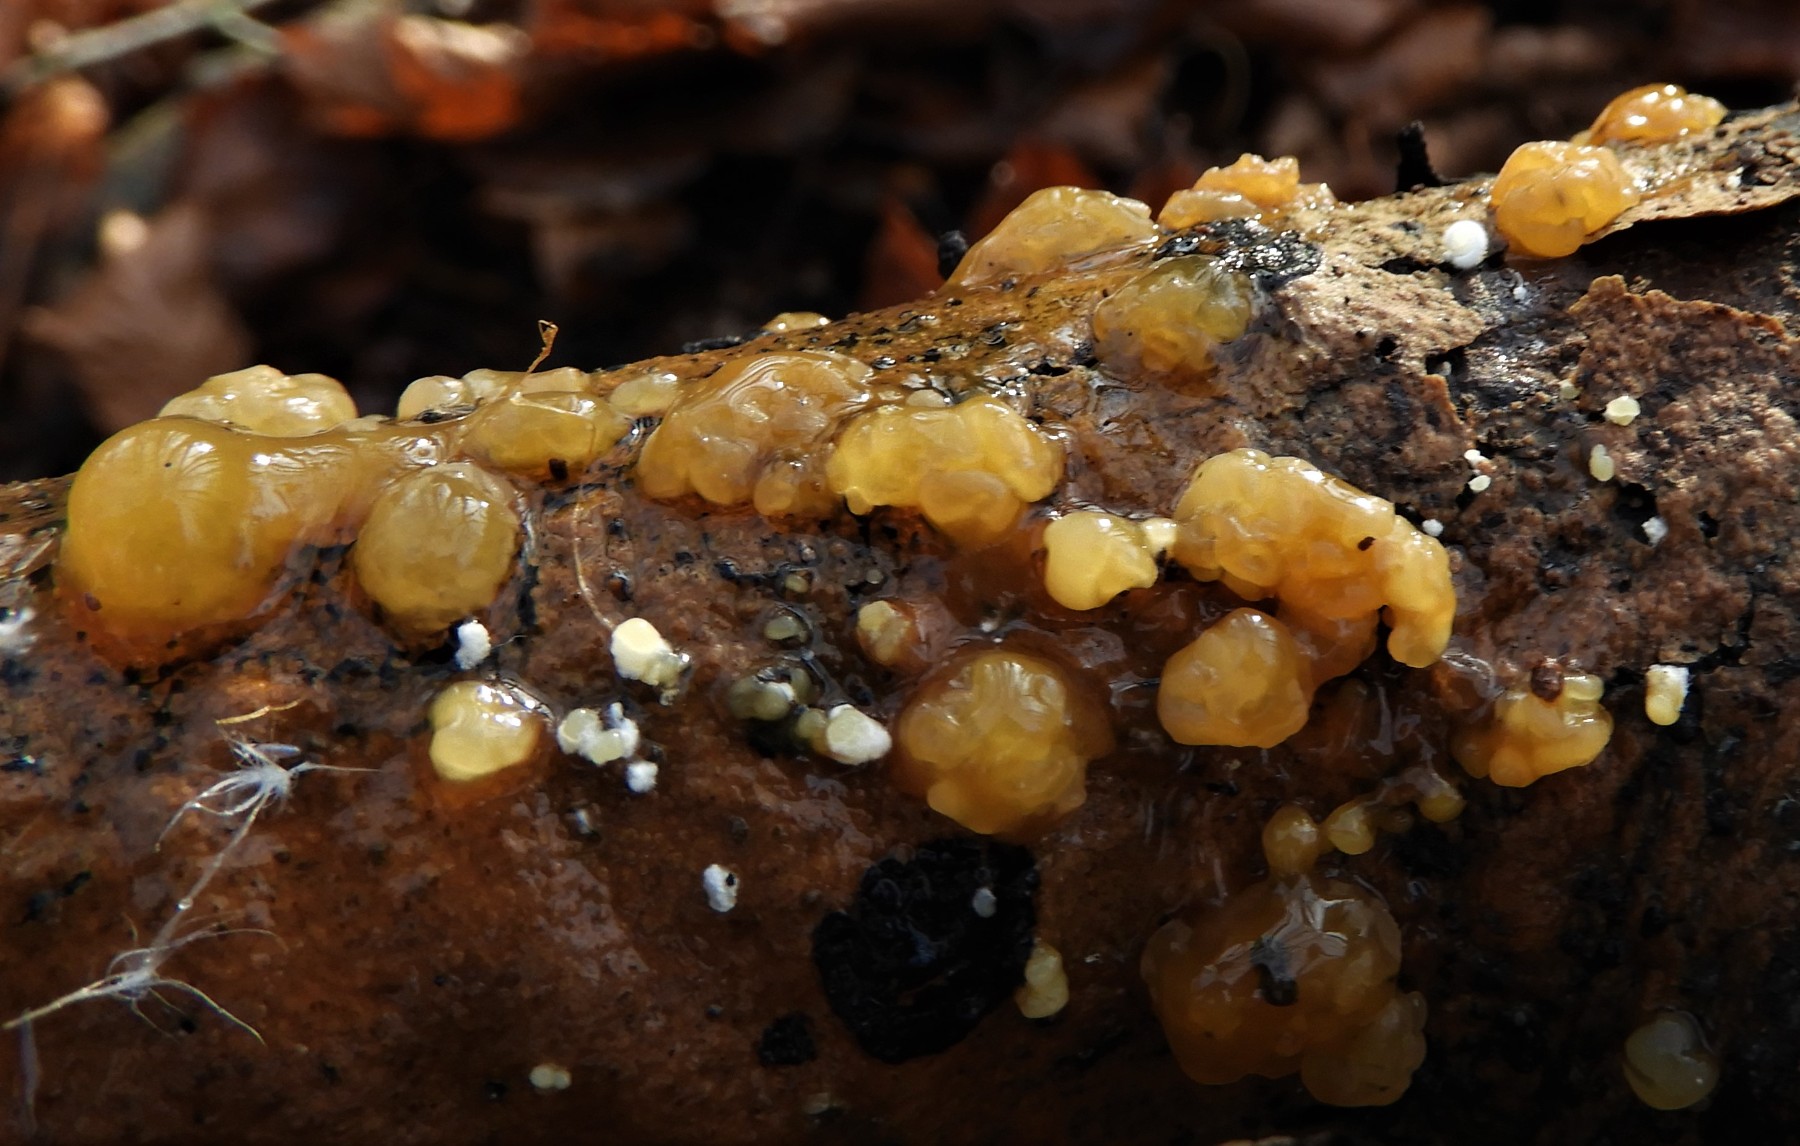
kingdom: Fungi
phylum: Basidiomycota
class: Dacrymycetes
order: Dacrymycetales
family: Dacrymycetaceae
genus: Dacrymyces
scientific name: Dacrymyces lacrymalis
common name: rynket tåresvamp
